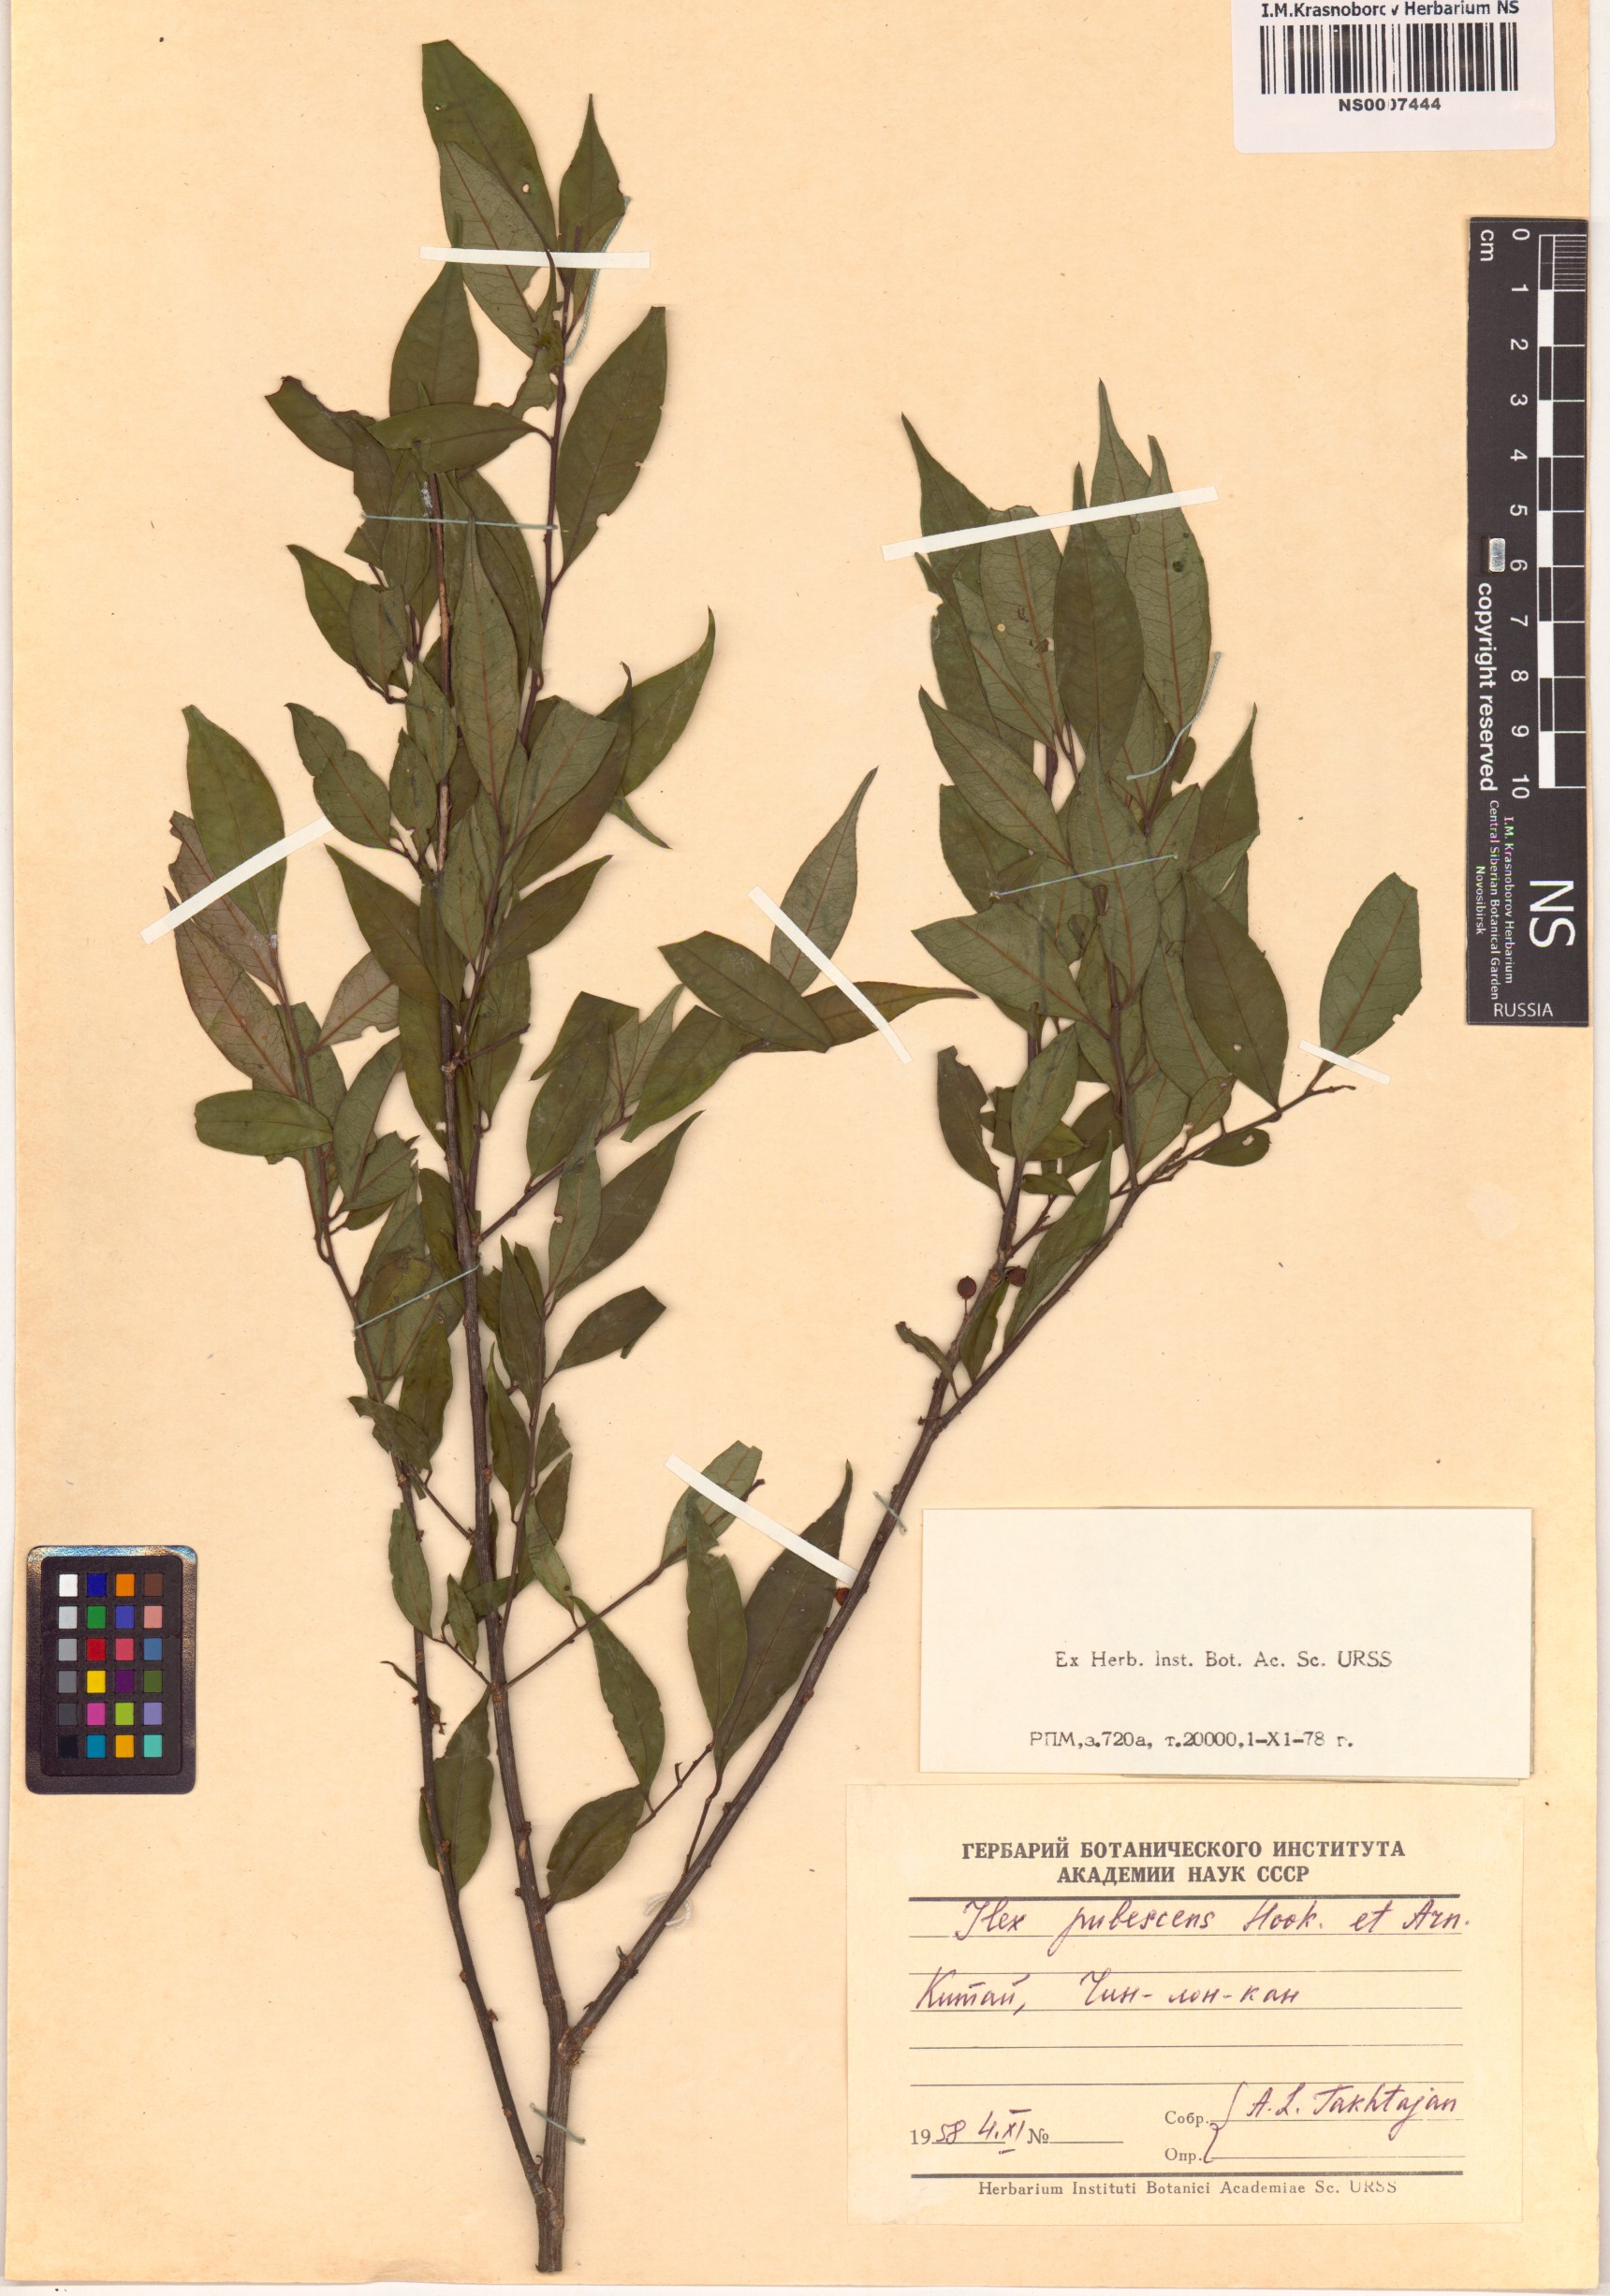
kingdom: Plantae
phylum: Tracheophyta
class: Magnoliopsida
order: Aquifoliales
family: Aquifoliaceae
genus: Ilex
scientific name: Ilex pubescens
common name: Pubescent holly
